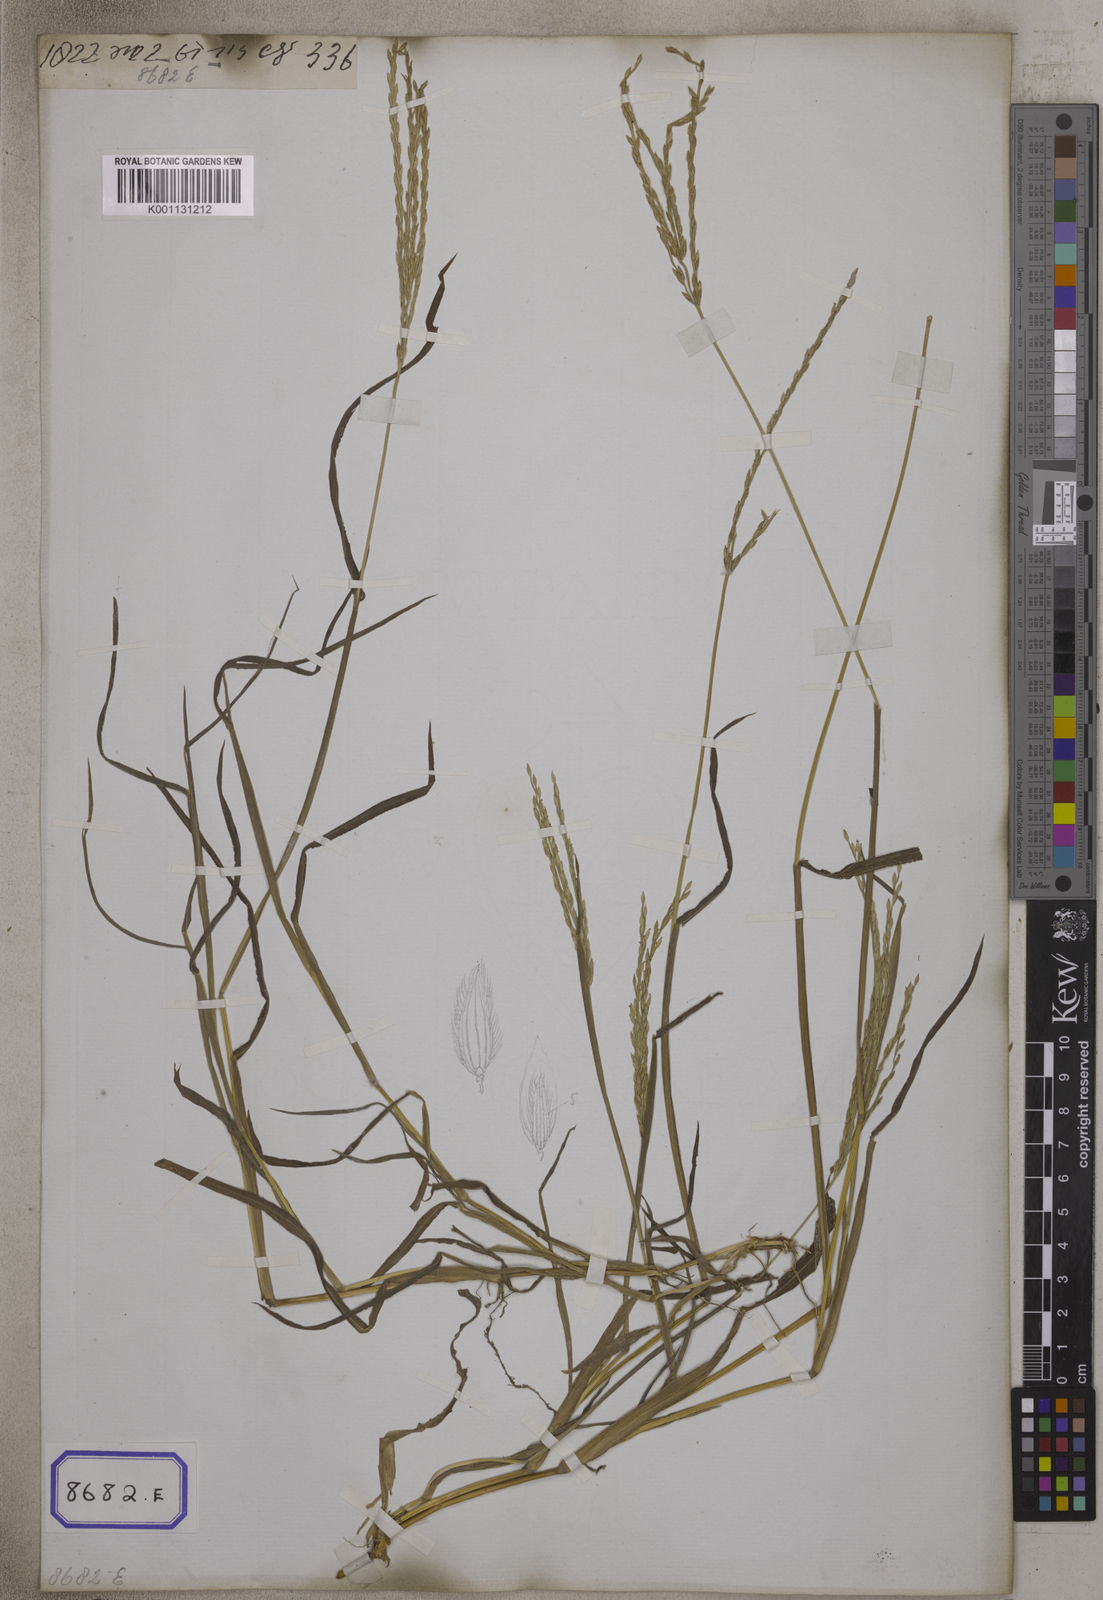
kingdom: Plantae
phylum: Tracheophyta
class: Liliopsida
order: Poales
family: Poaceae
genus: Digitaria
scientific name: Digitaria ciliaris
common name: Tropical finger-grass
